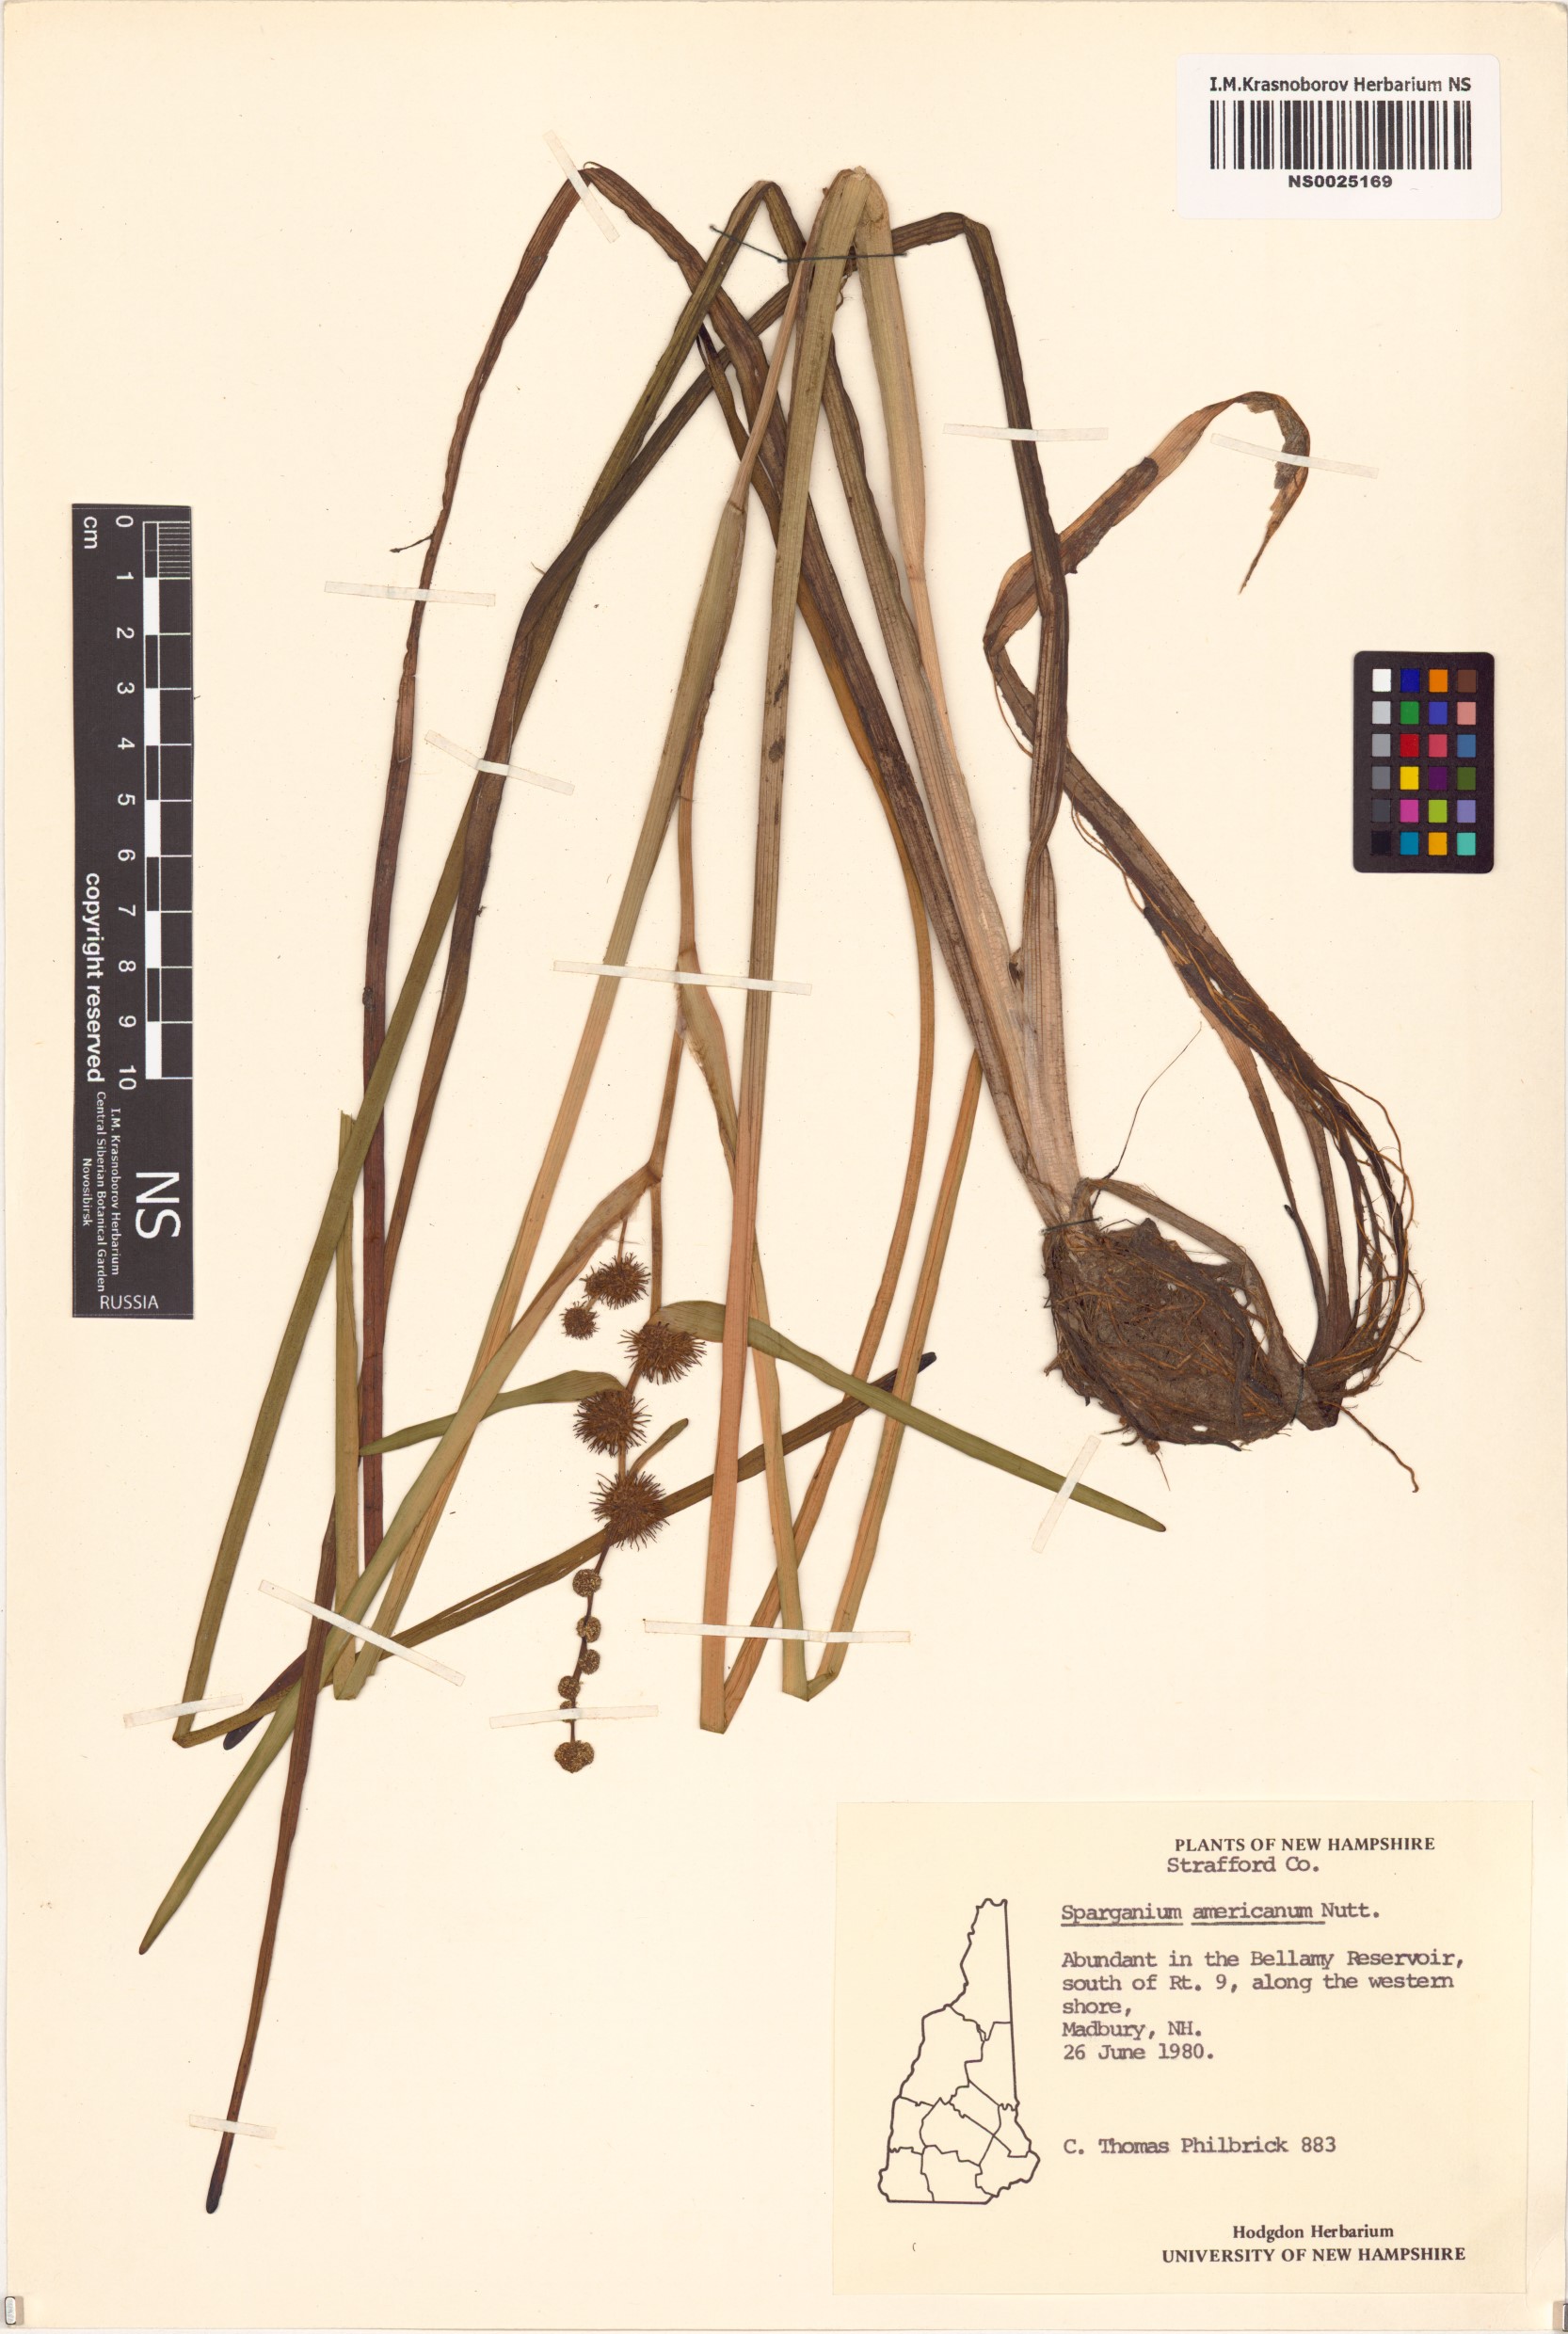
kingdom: Plantae
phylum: Tracheophyta
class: Liliopsida
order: Poales
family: Typhaceae
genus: Sparganium
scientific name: Sparganium americanum
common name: American burreed
